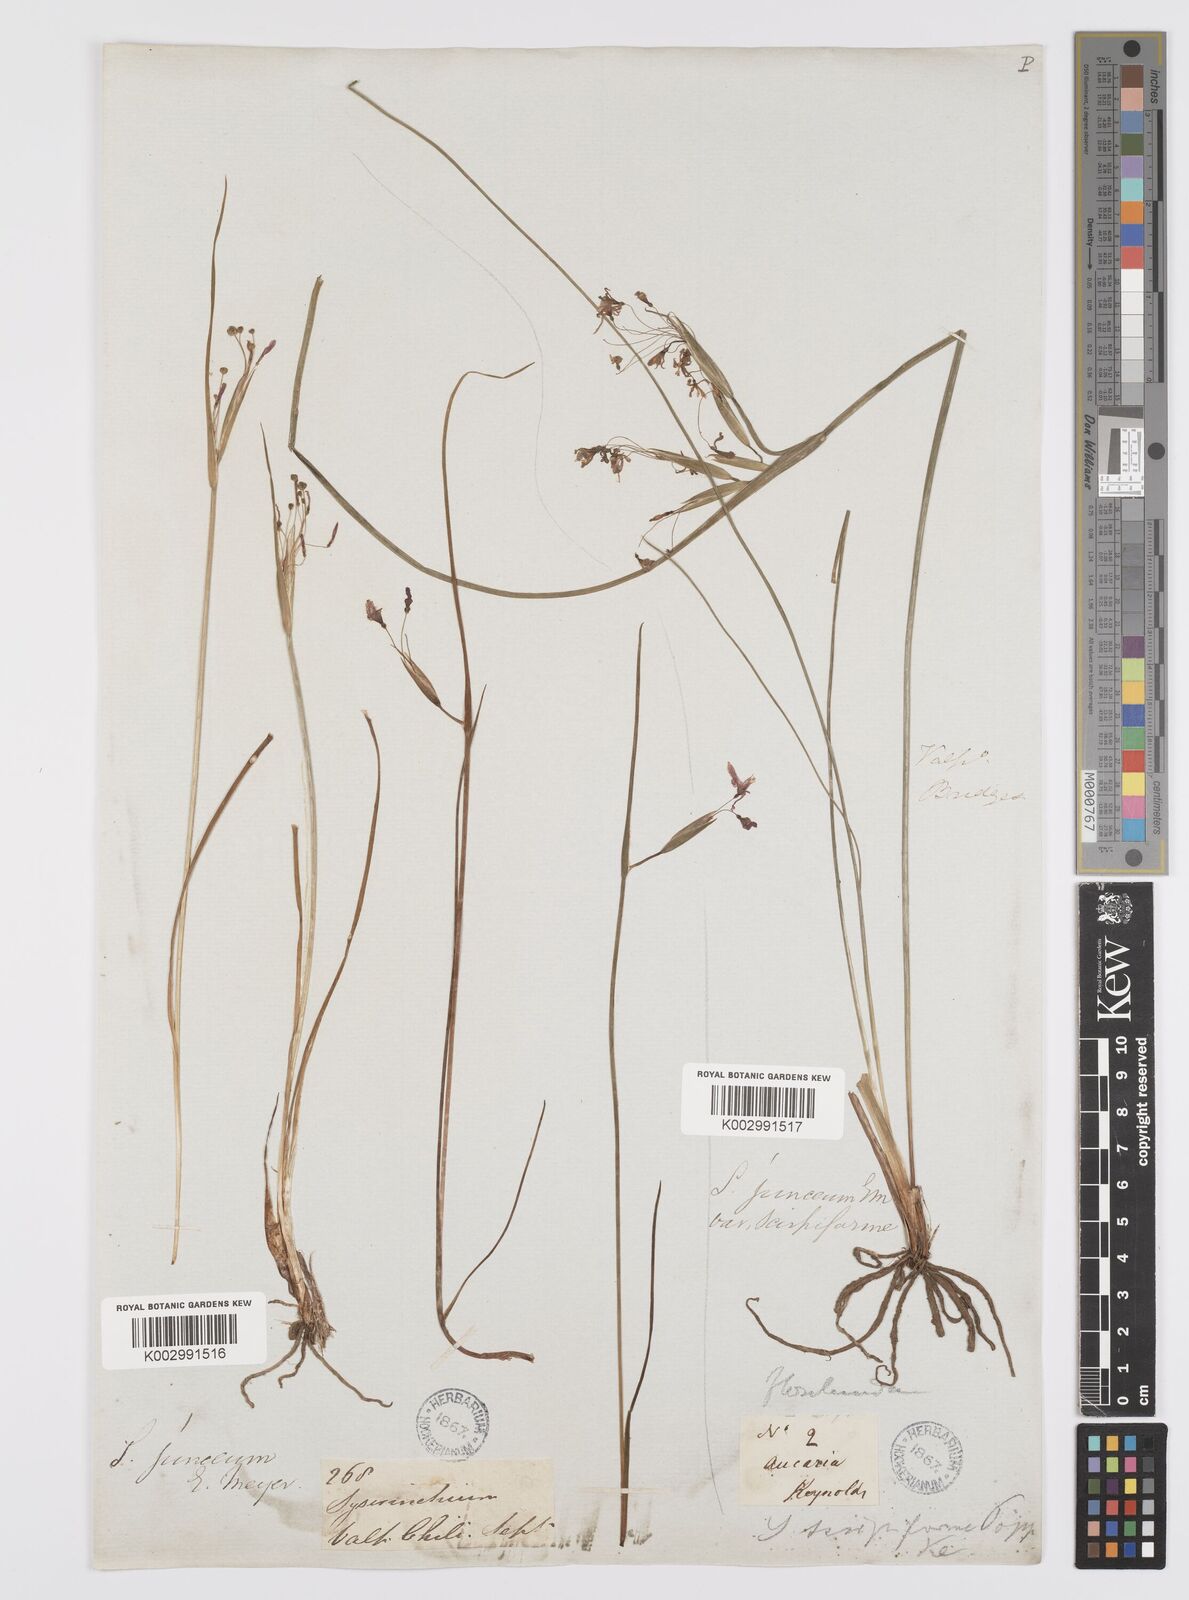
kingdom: Plantae
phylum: Tracheophyta
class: Liliopsida
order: Asparagales
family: Iridaceae
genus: Olsynium
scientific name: Olsynium junceum
